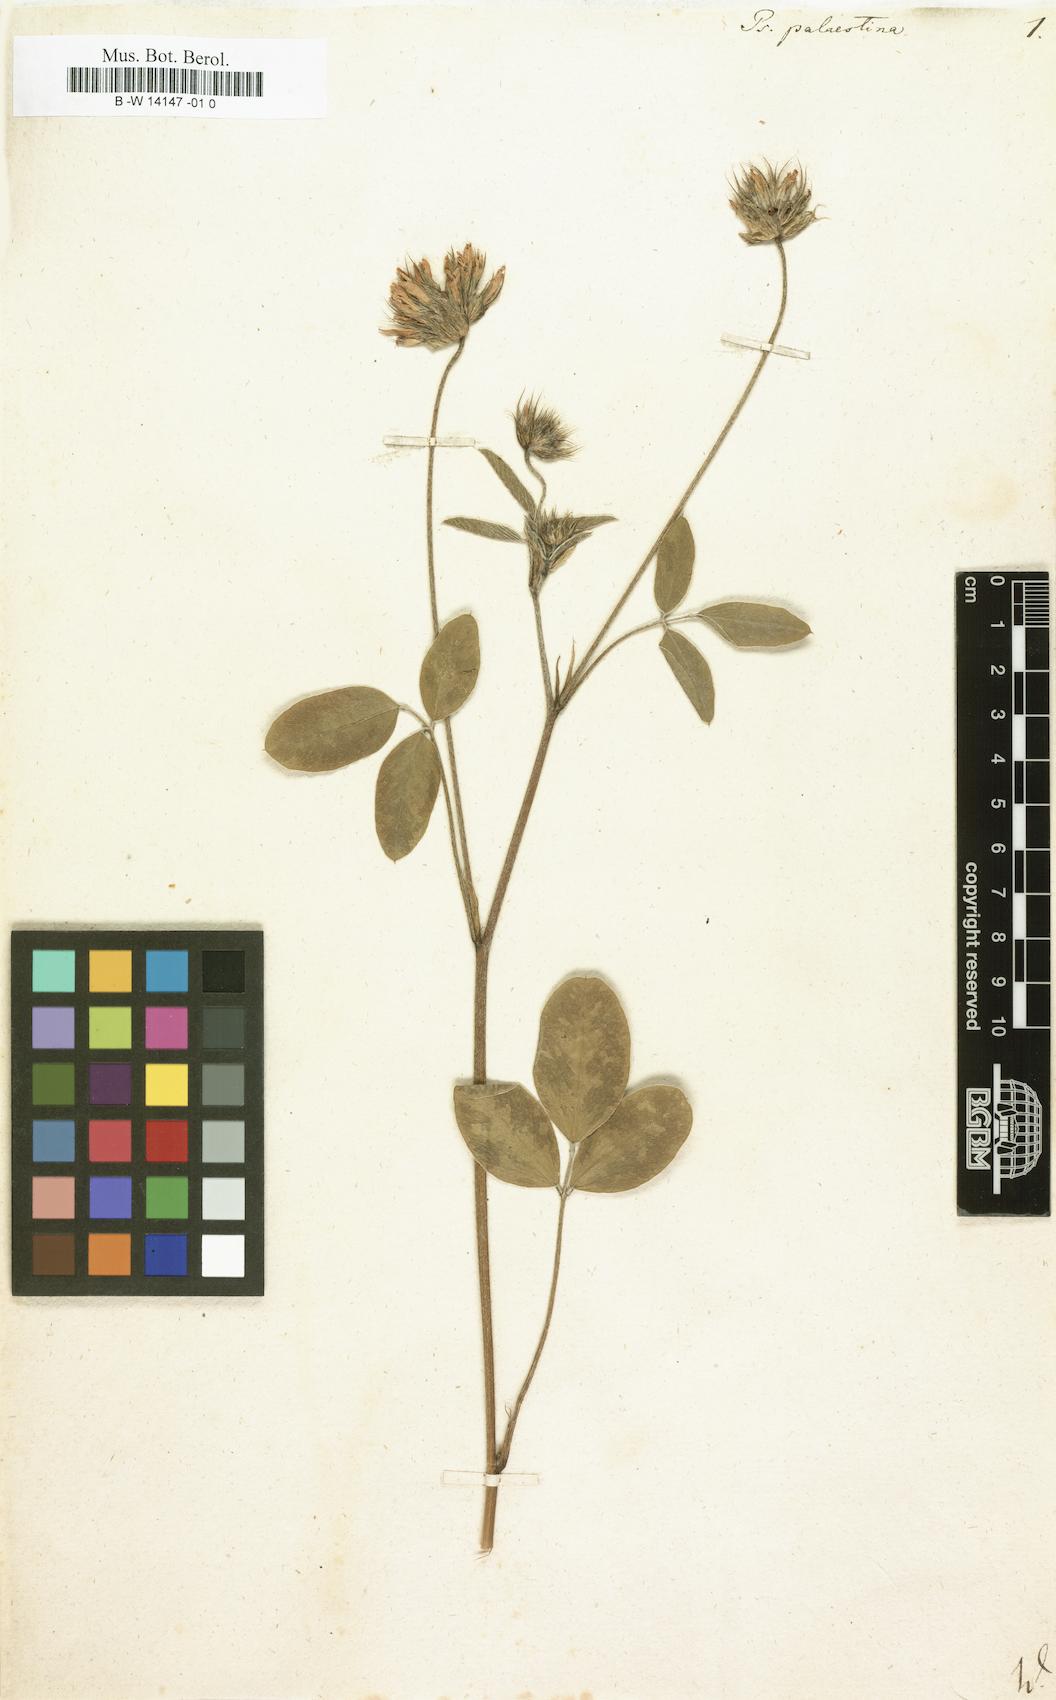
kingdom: Plantae
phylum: Tracheophyta
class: Magnoliopsida
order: Fabales
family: Fabaceae
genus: Bituminaria
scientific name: Bituminaria
